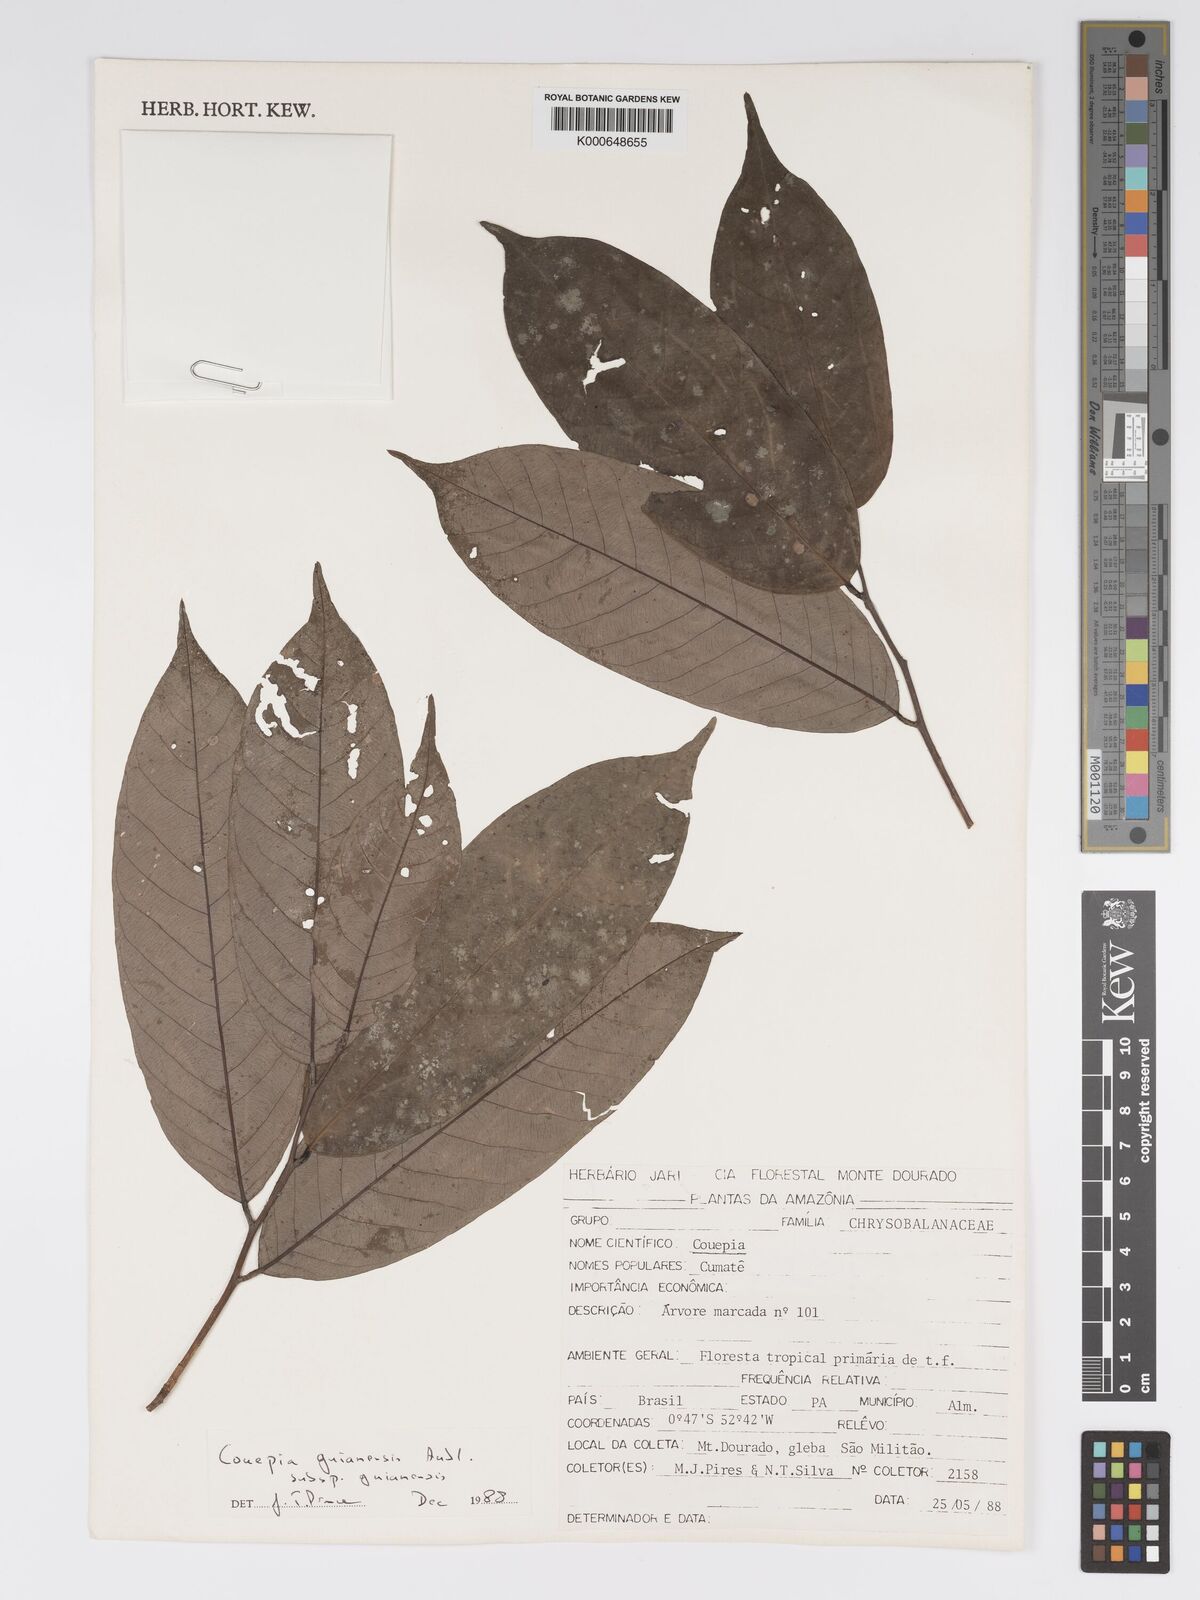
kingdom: Plantae
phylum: Tracheophyta
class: Magnoliopsida
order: Malpighiales
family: Chrysobalanaceae
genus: Couepia
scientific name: Couepia guianensis
